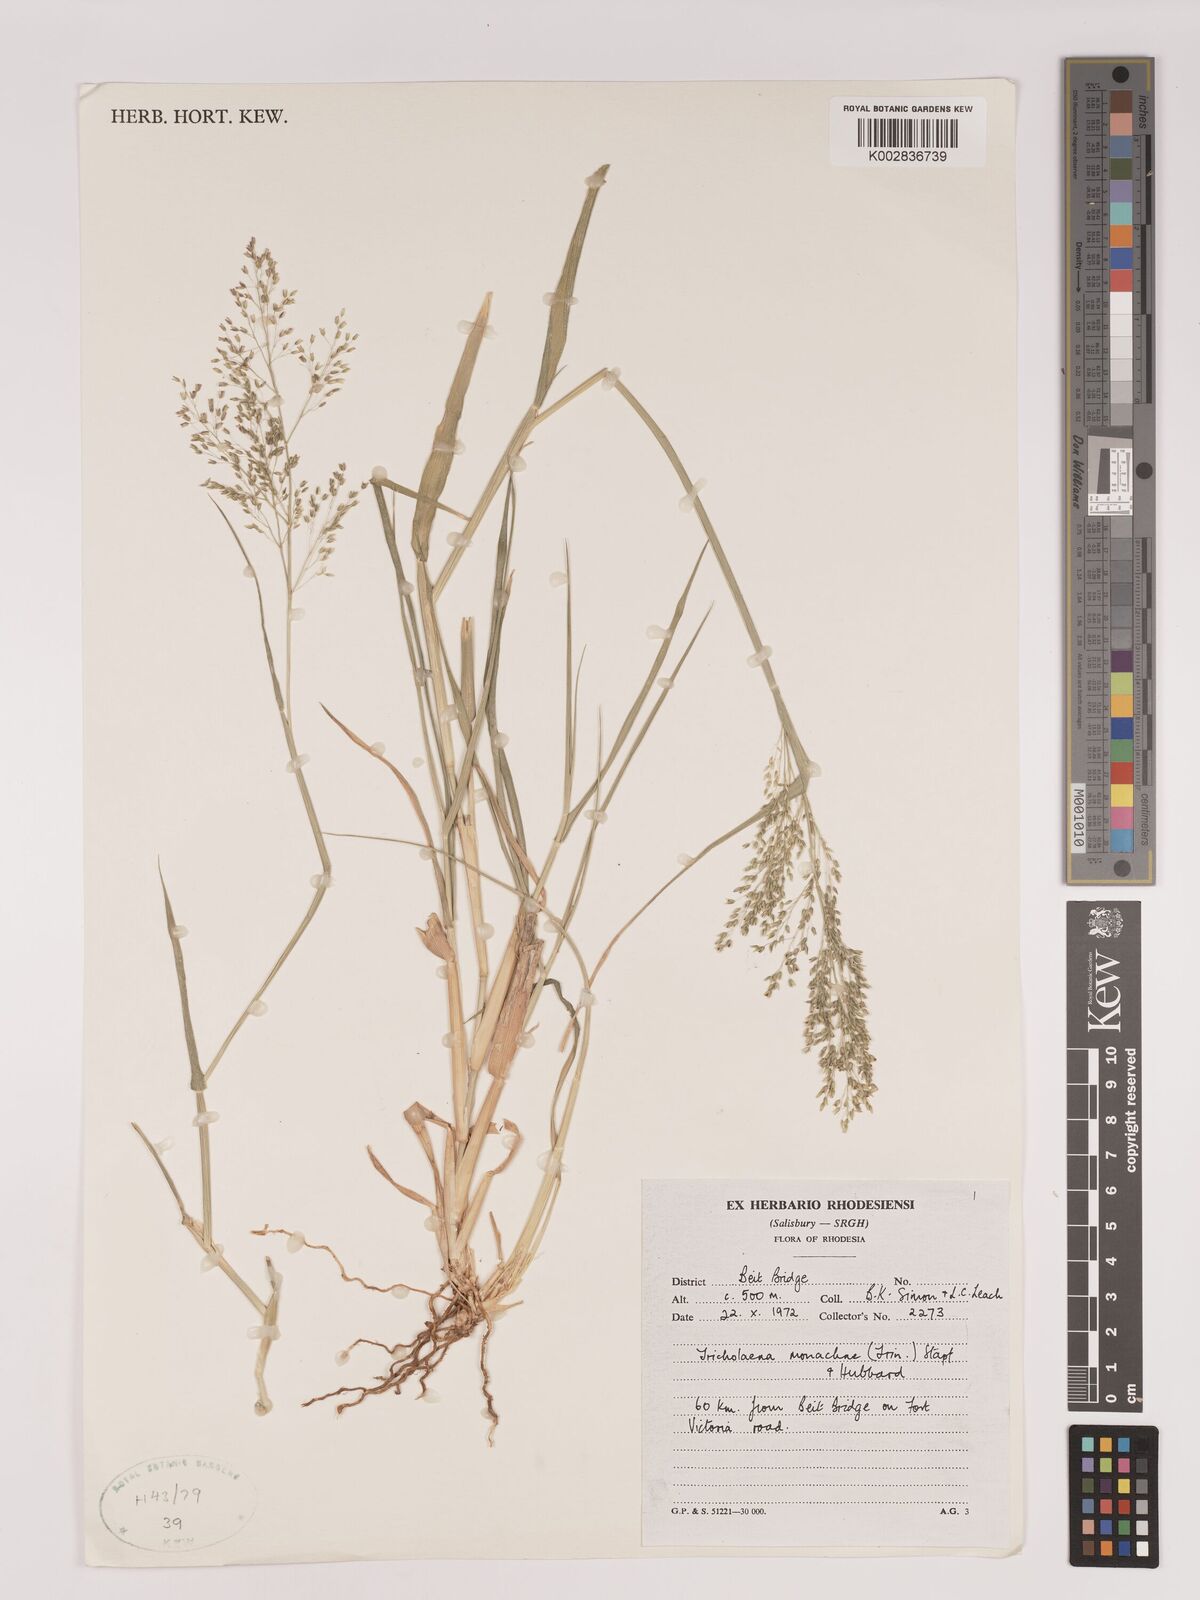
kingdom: Plantae
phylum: Tracheophyta
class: Liliopsida
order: Poales
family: Poaceae
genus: Tricholaena
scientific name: Tricholaena monachne
